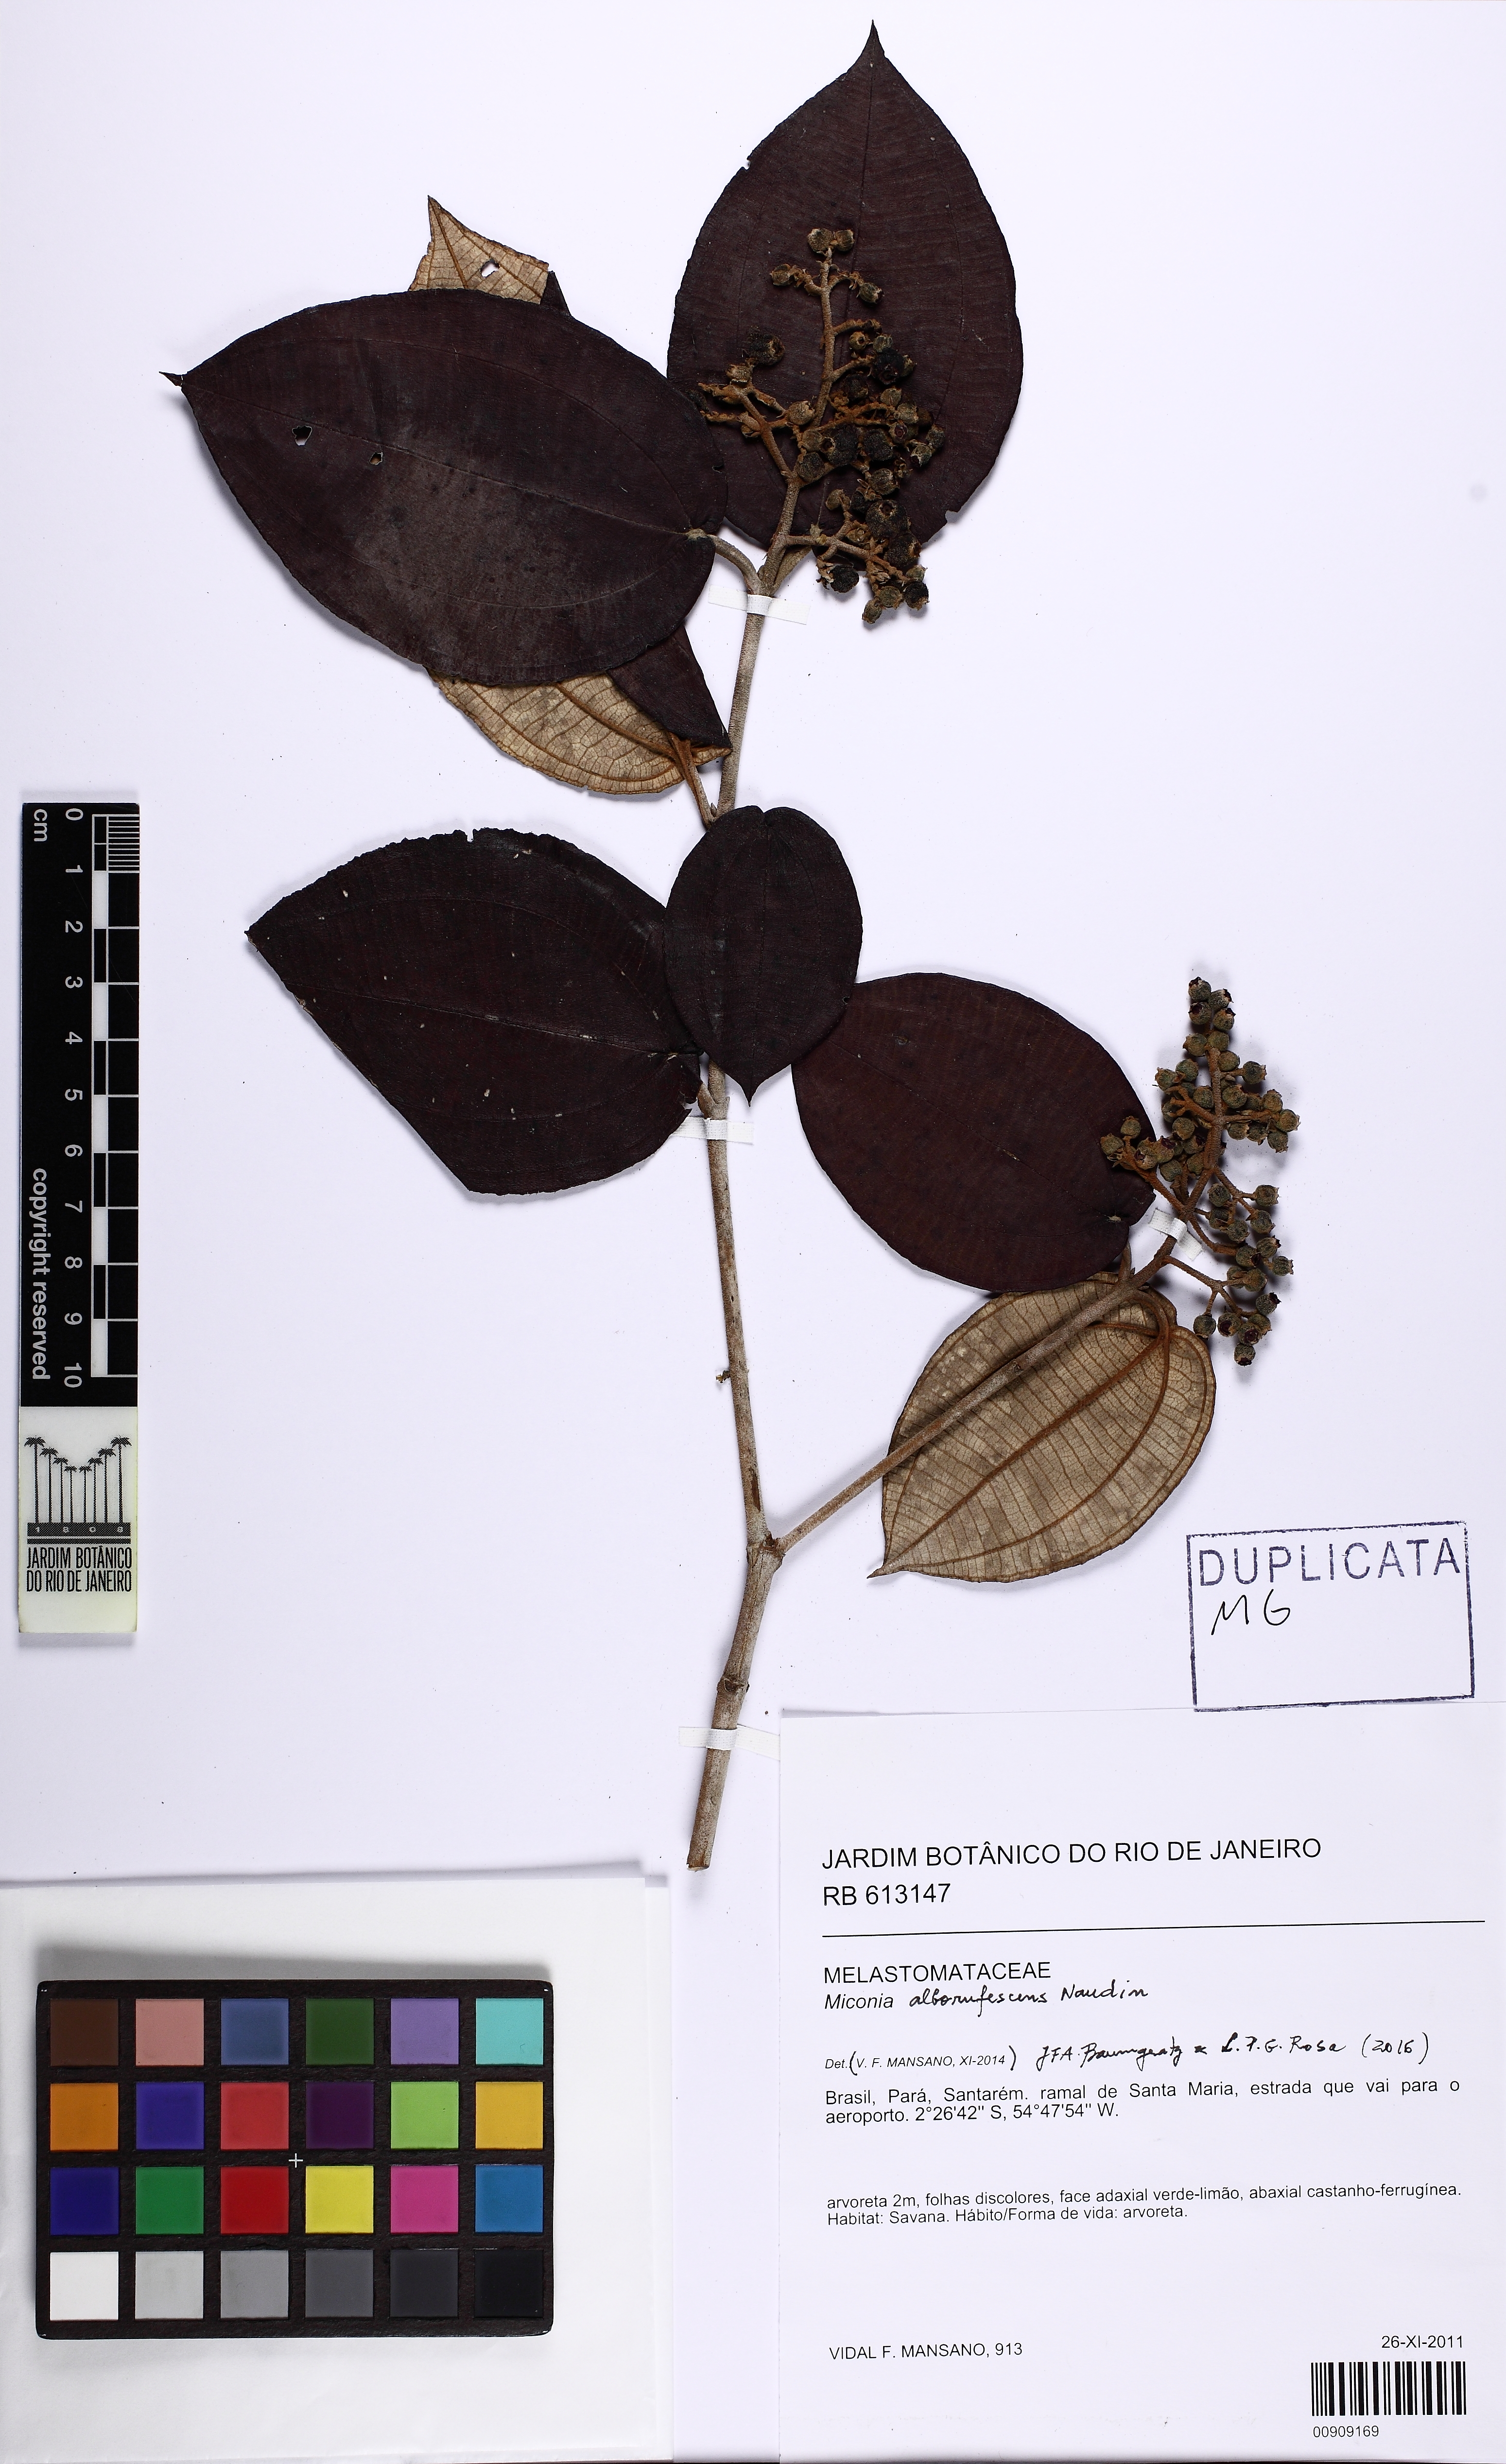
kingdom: Plantae
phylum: Tracheophyta
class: Magnoliopsida
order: Myrtales
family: Melastomataceae
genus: Miconia
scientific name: Miconia alborufescens
